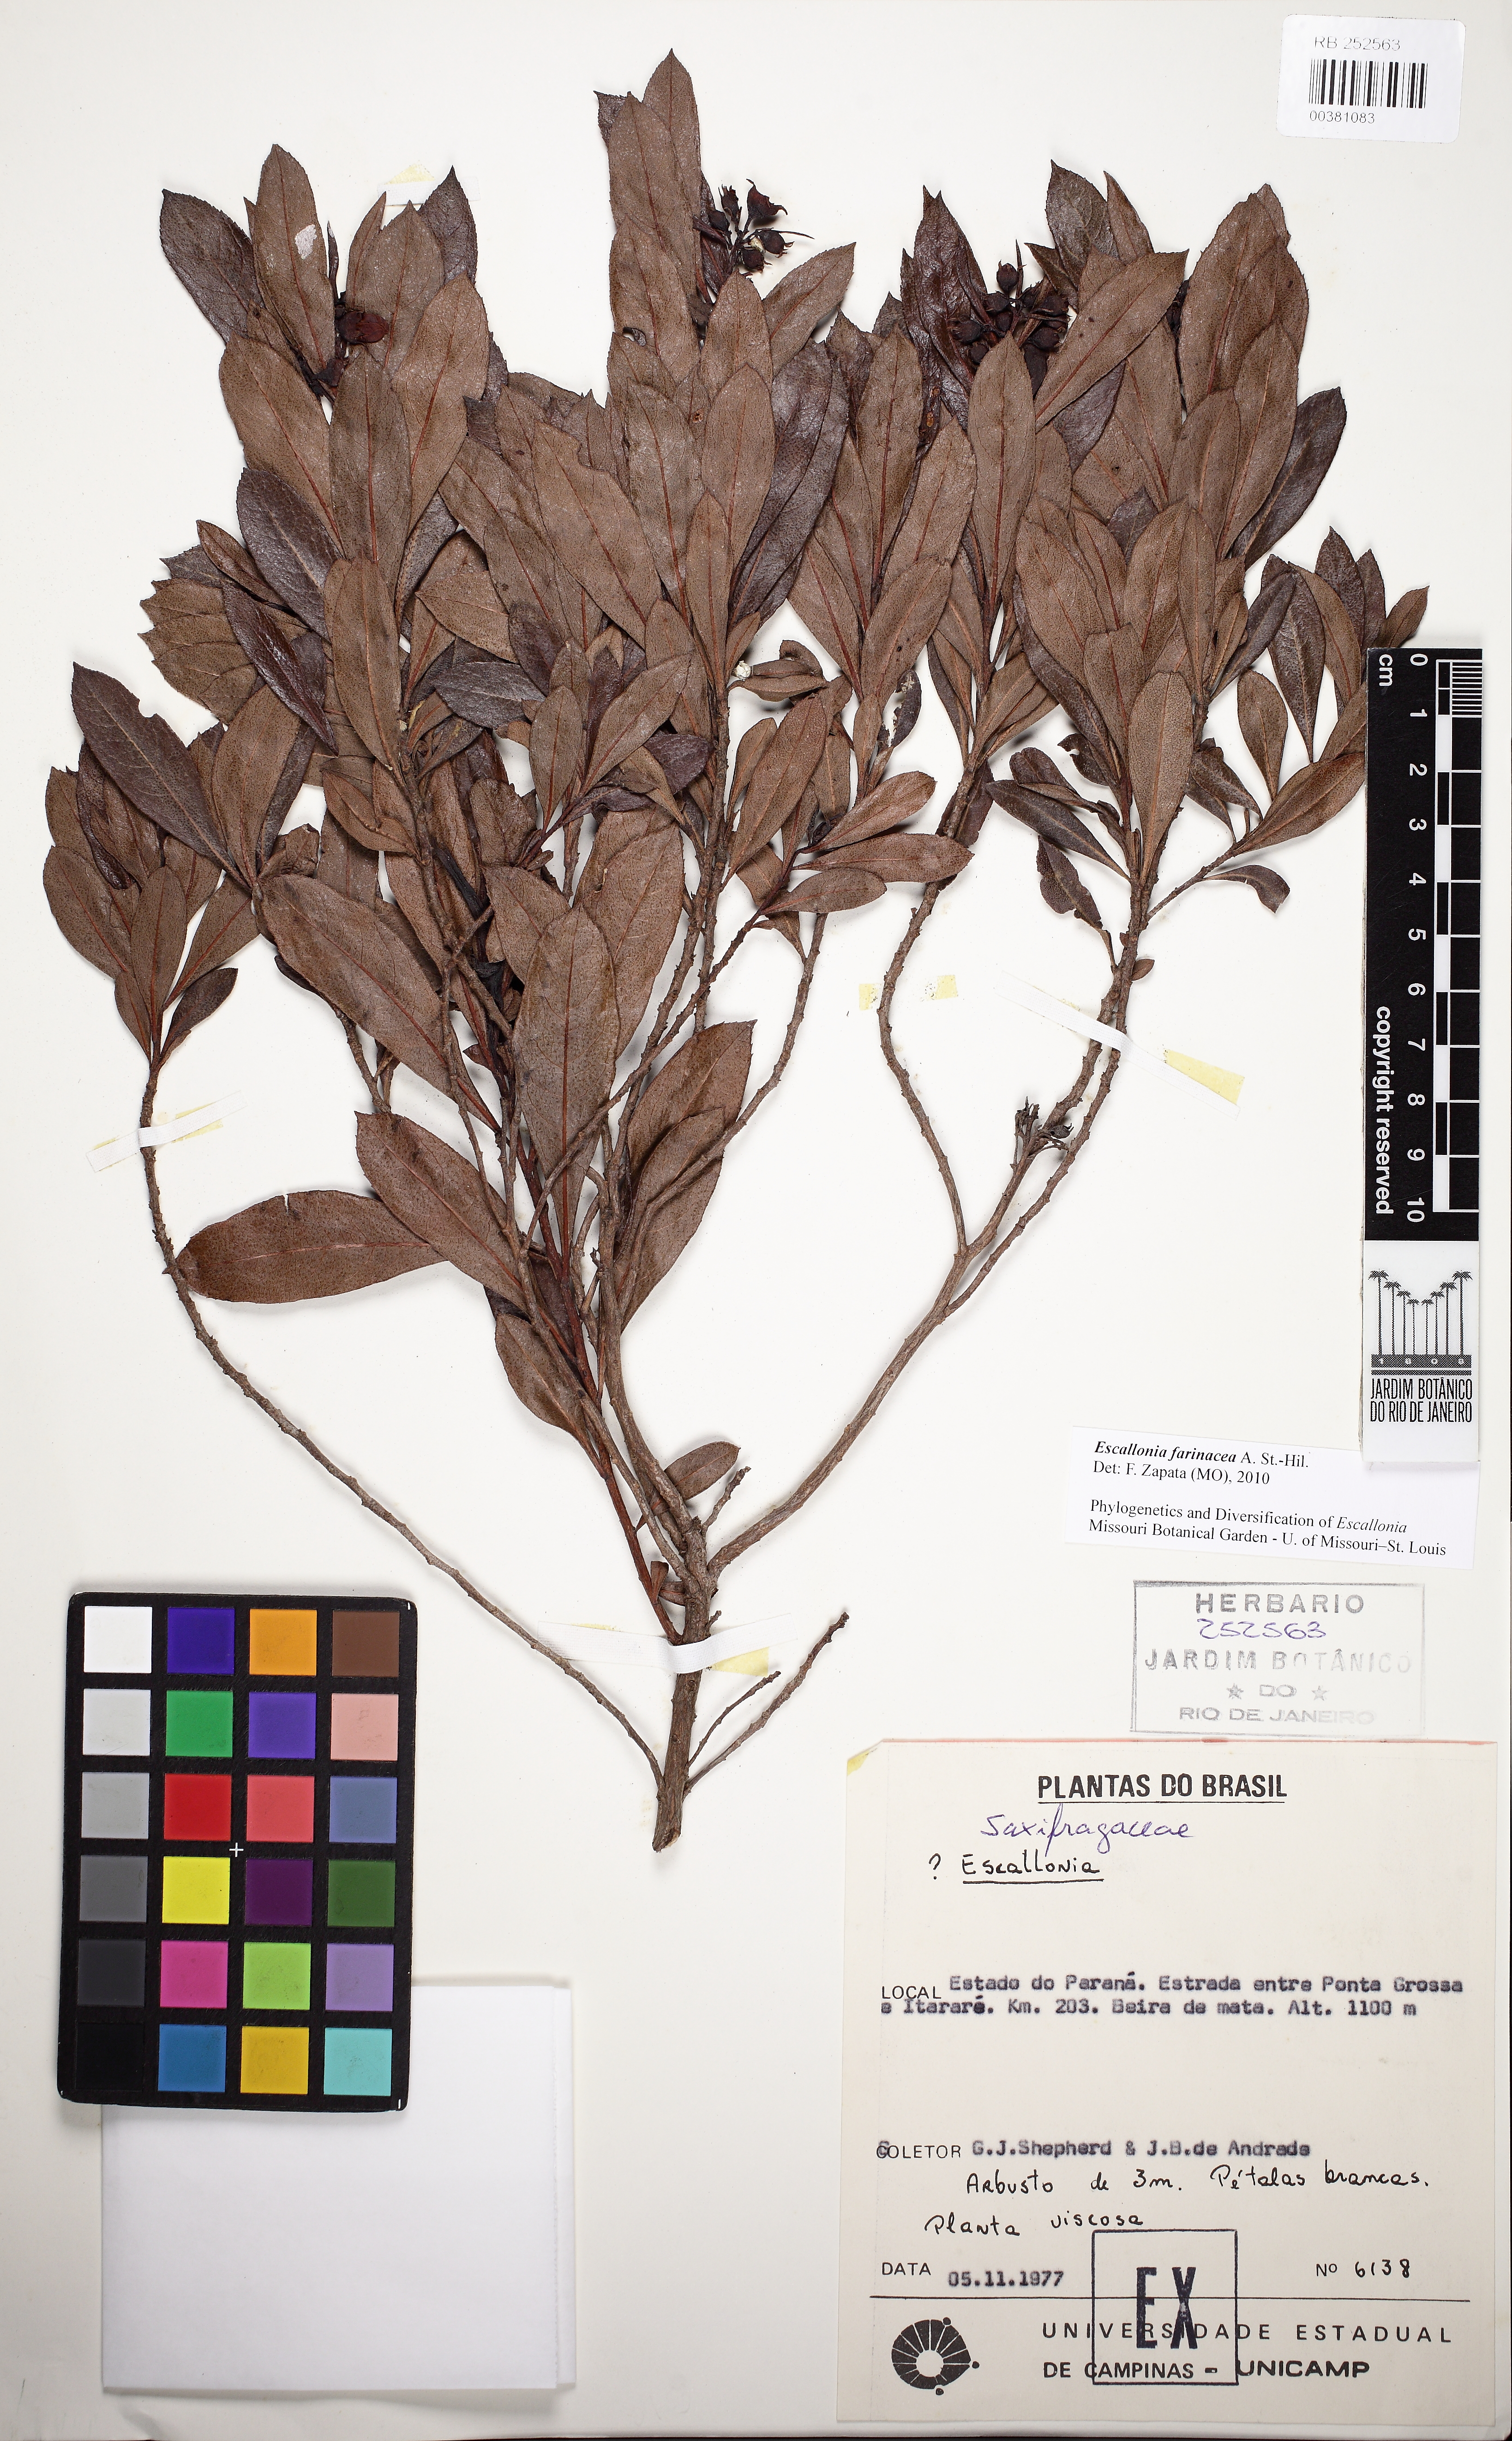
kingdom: Plantae
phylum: Tracheophyta
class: Magnoliopsida
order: Escalloniales
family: Escalloniaceae
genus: Escallonia
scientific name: Escallonia farinacea
